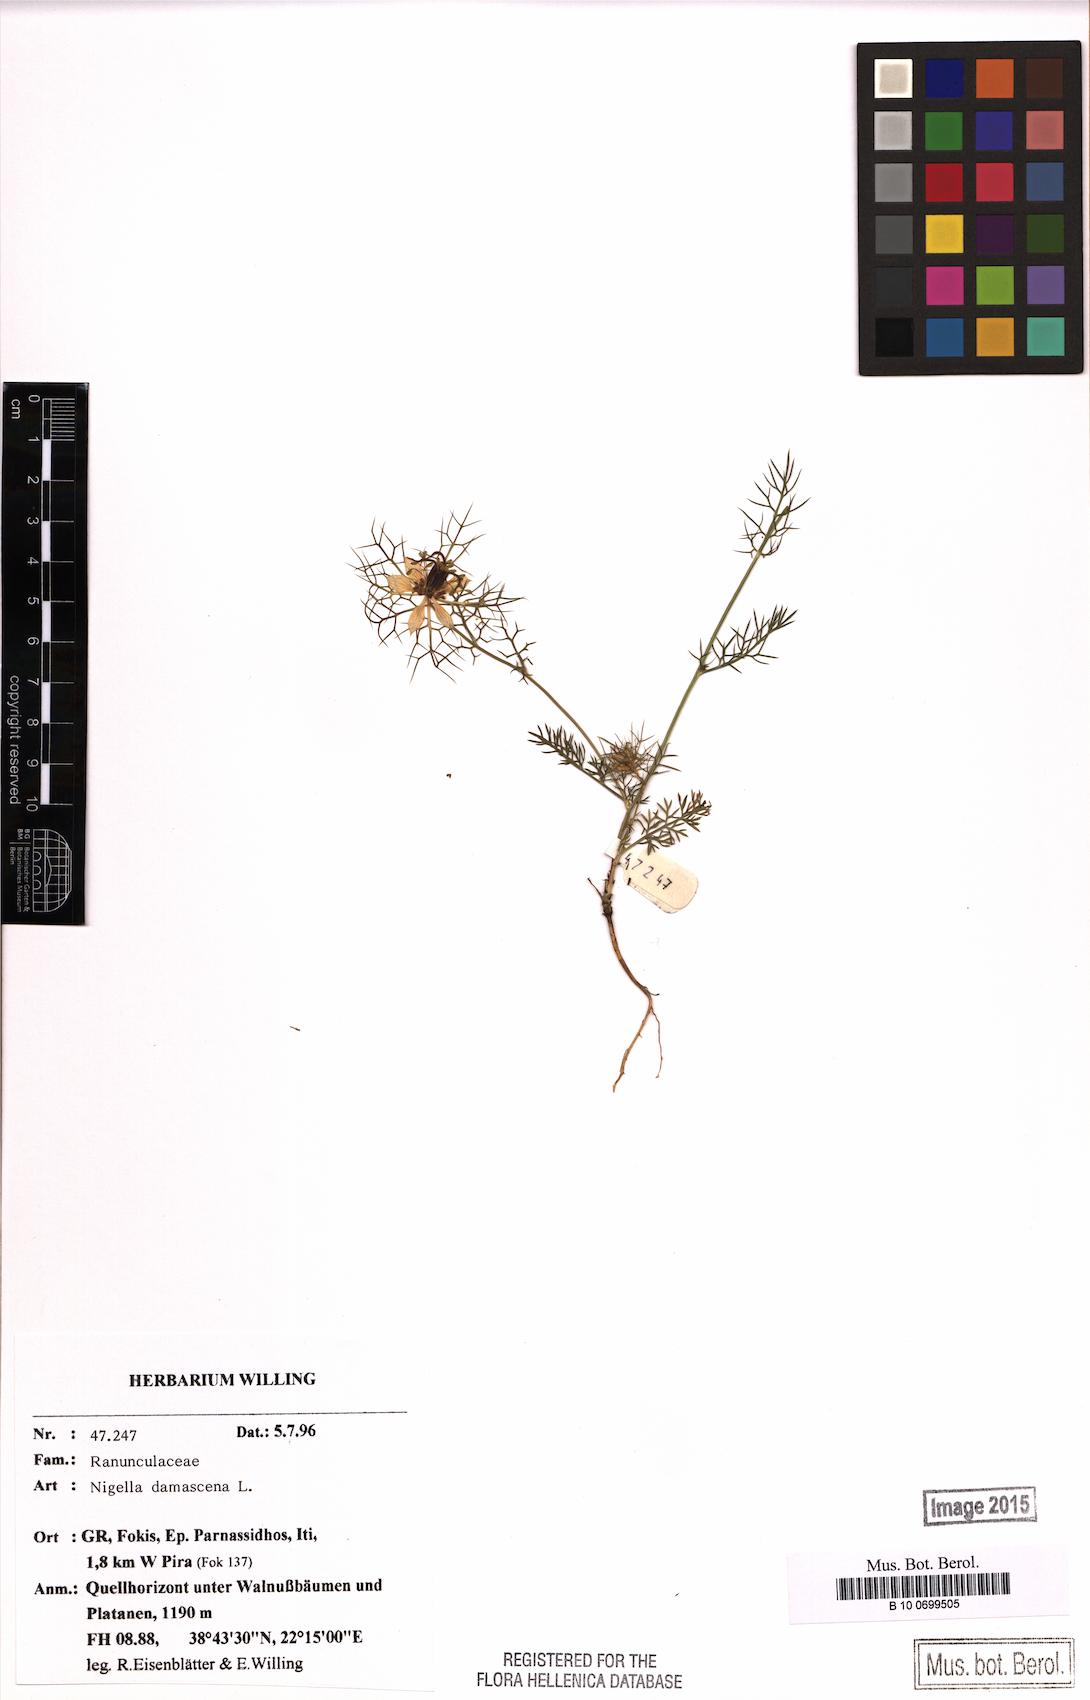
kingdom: Plantae
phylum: Tracheophyta
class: Magnoliopsida
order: Ranunculales
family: Ranunculaceae
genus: Nigella
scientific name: Nigella damascena
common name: Love-in-a-mist
